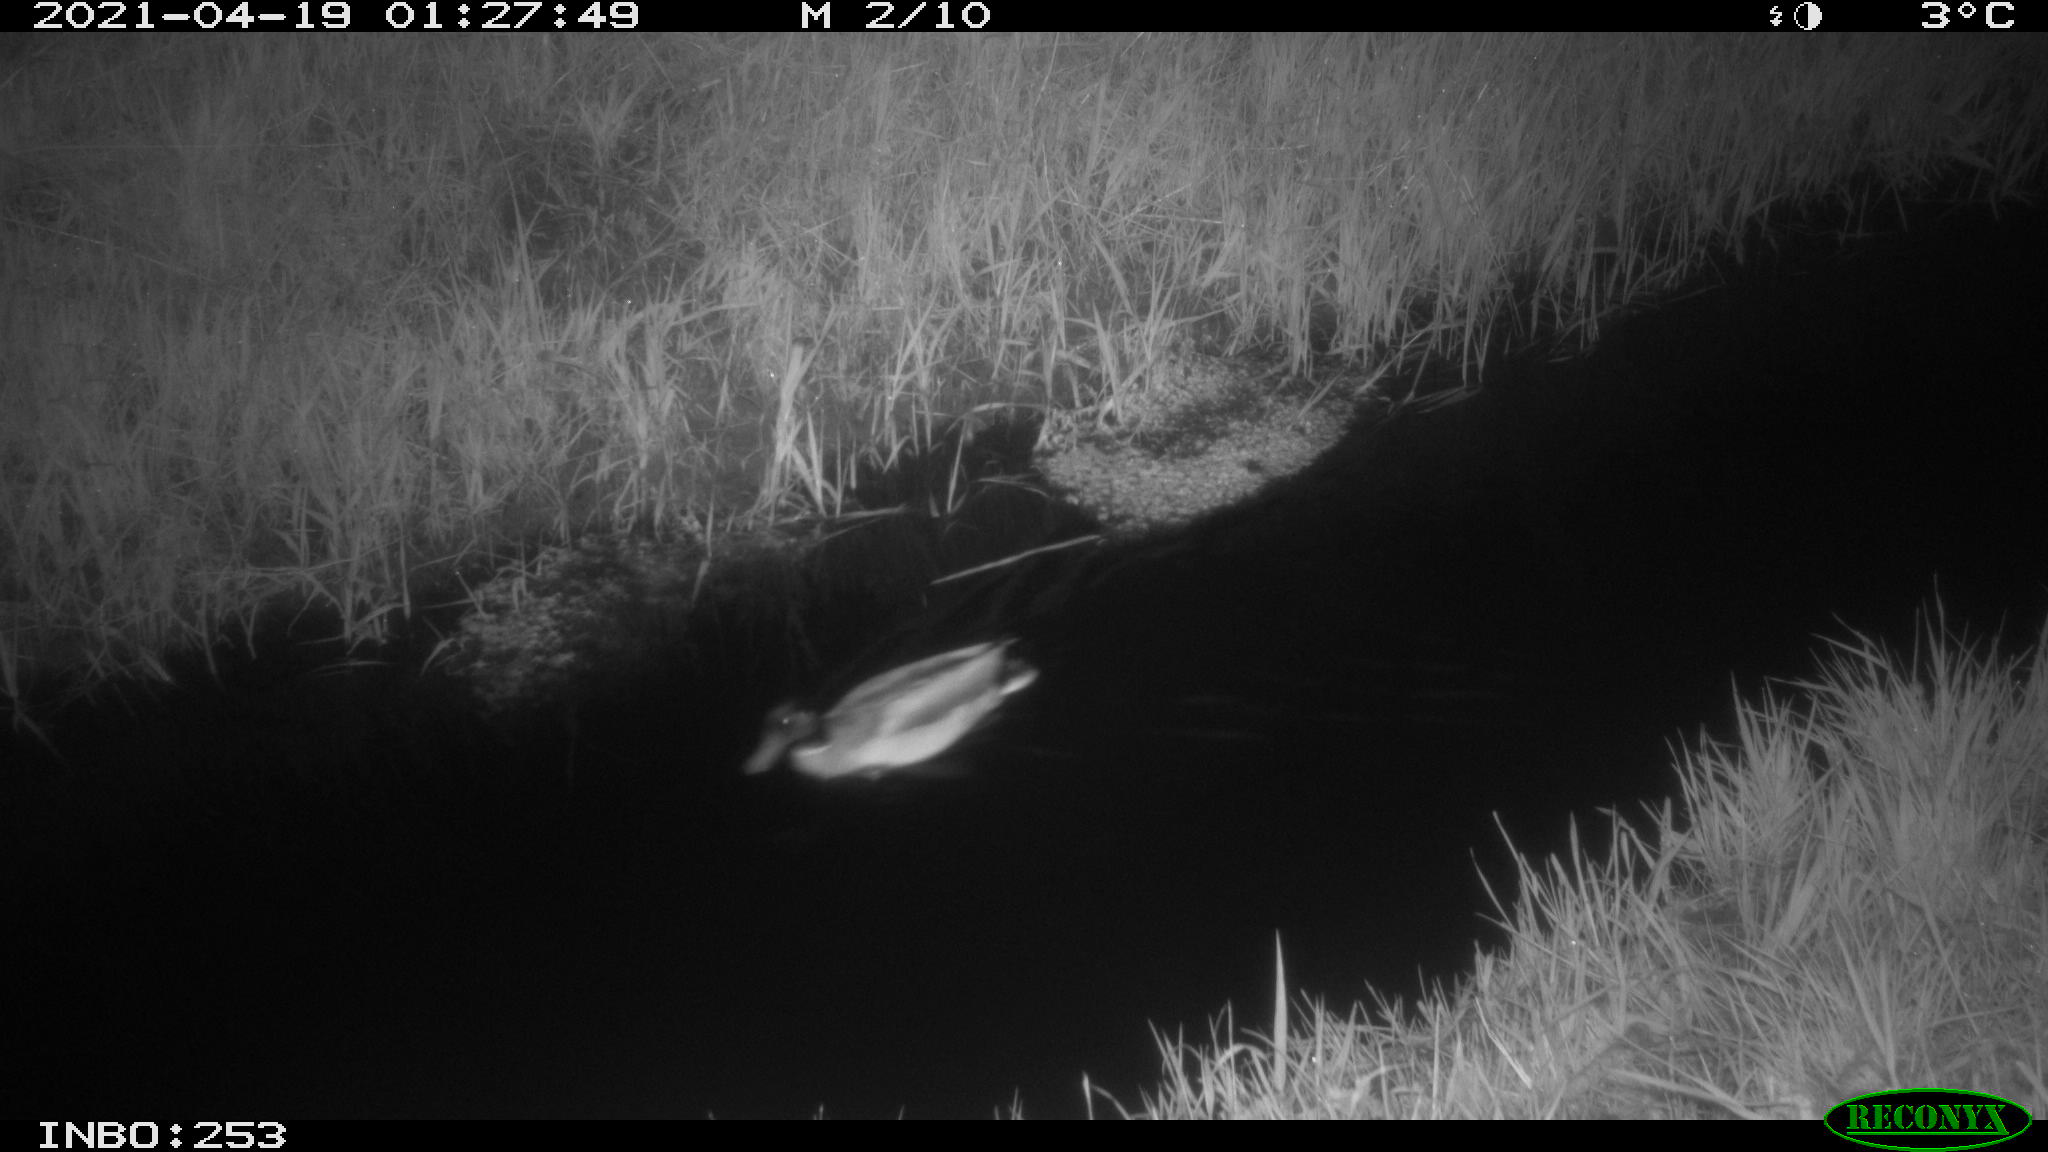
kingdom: Animalia
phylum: Chordata
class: Aves
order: Anseriformes
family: Anatidae
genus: Anas
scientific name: Anas platyrhynchos
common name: Mallard
